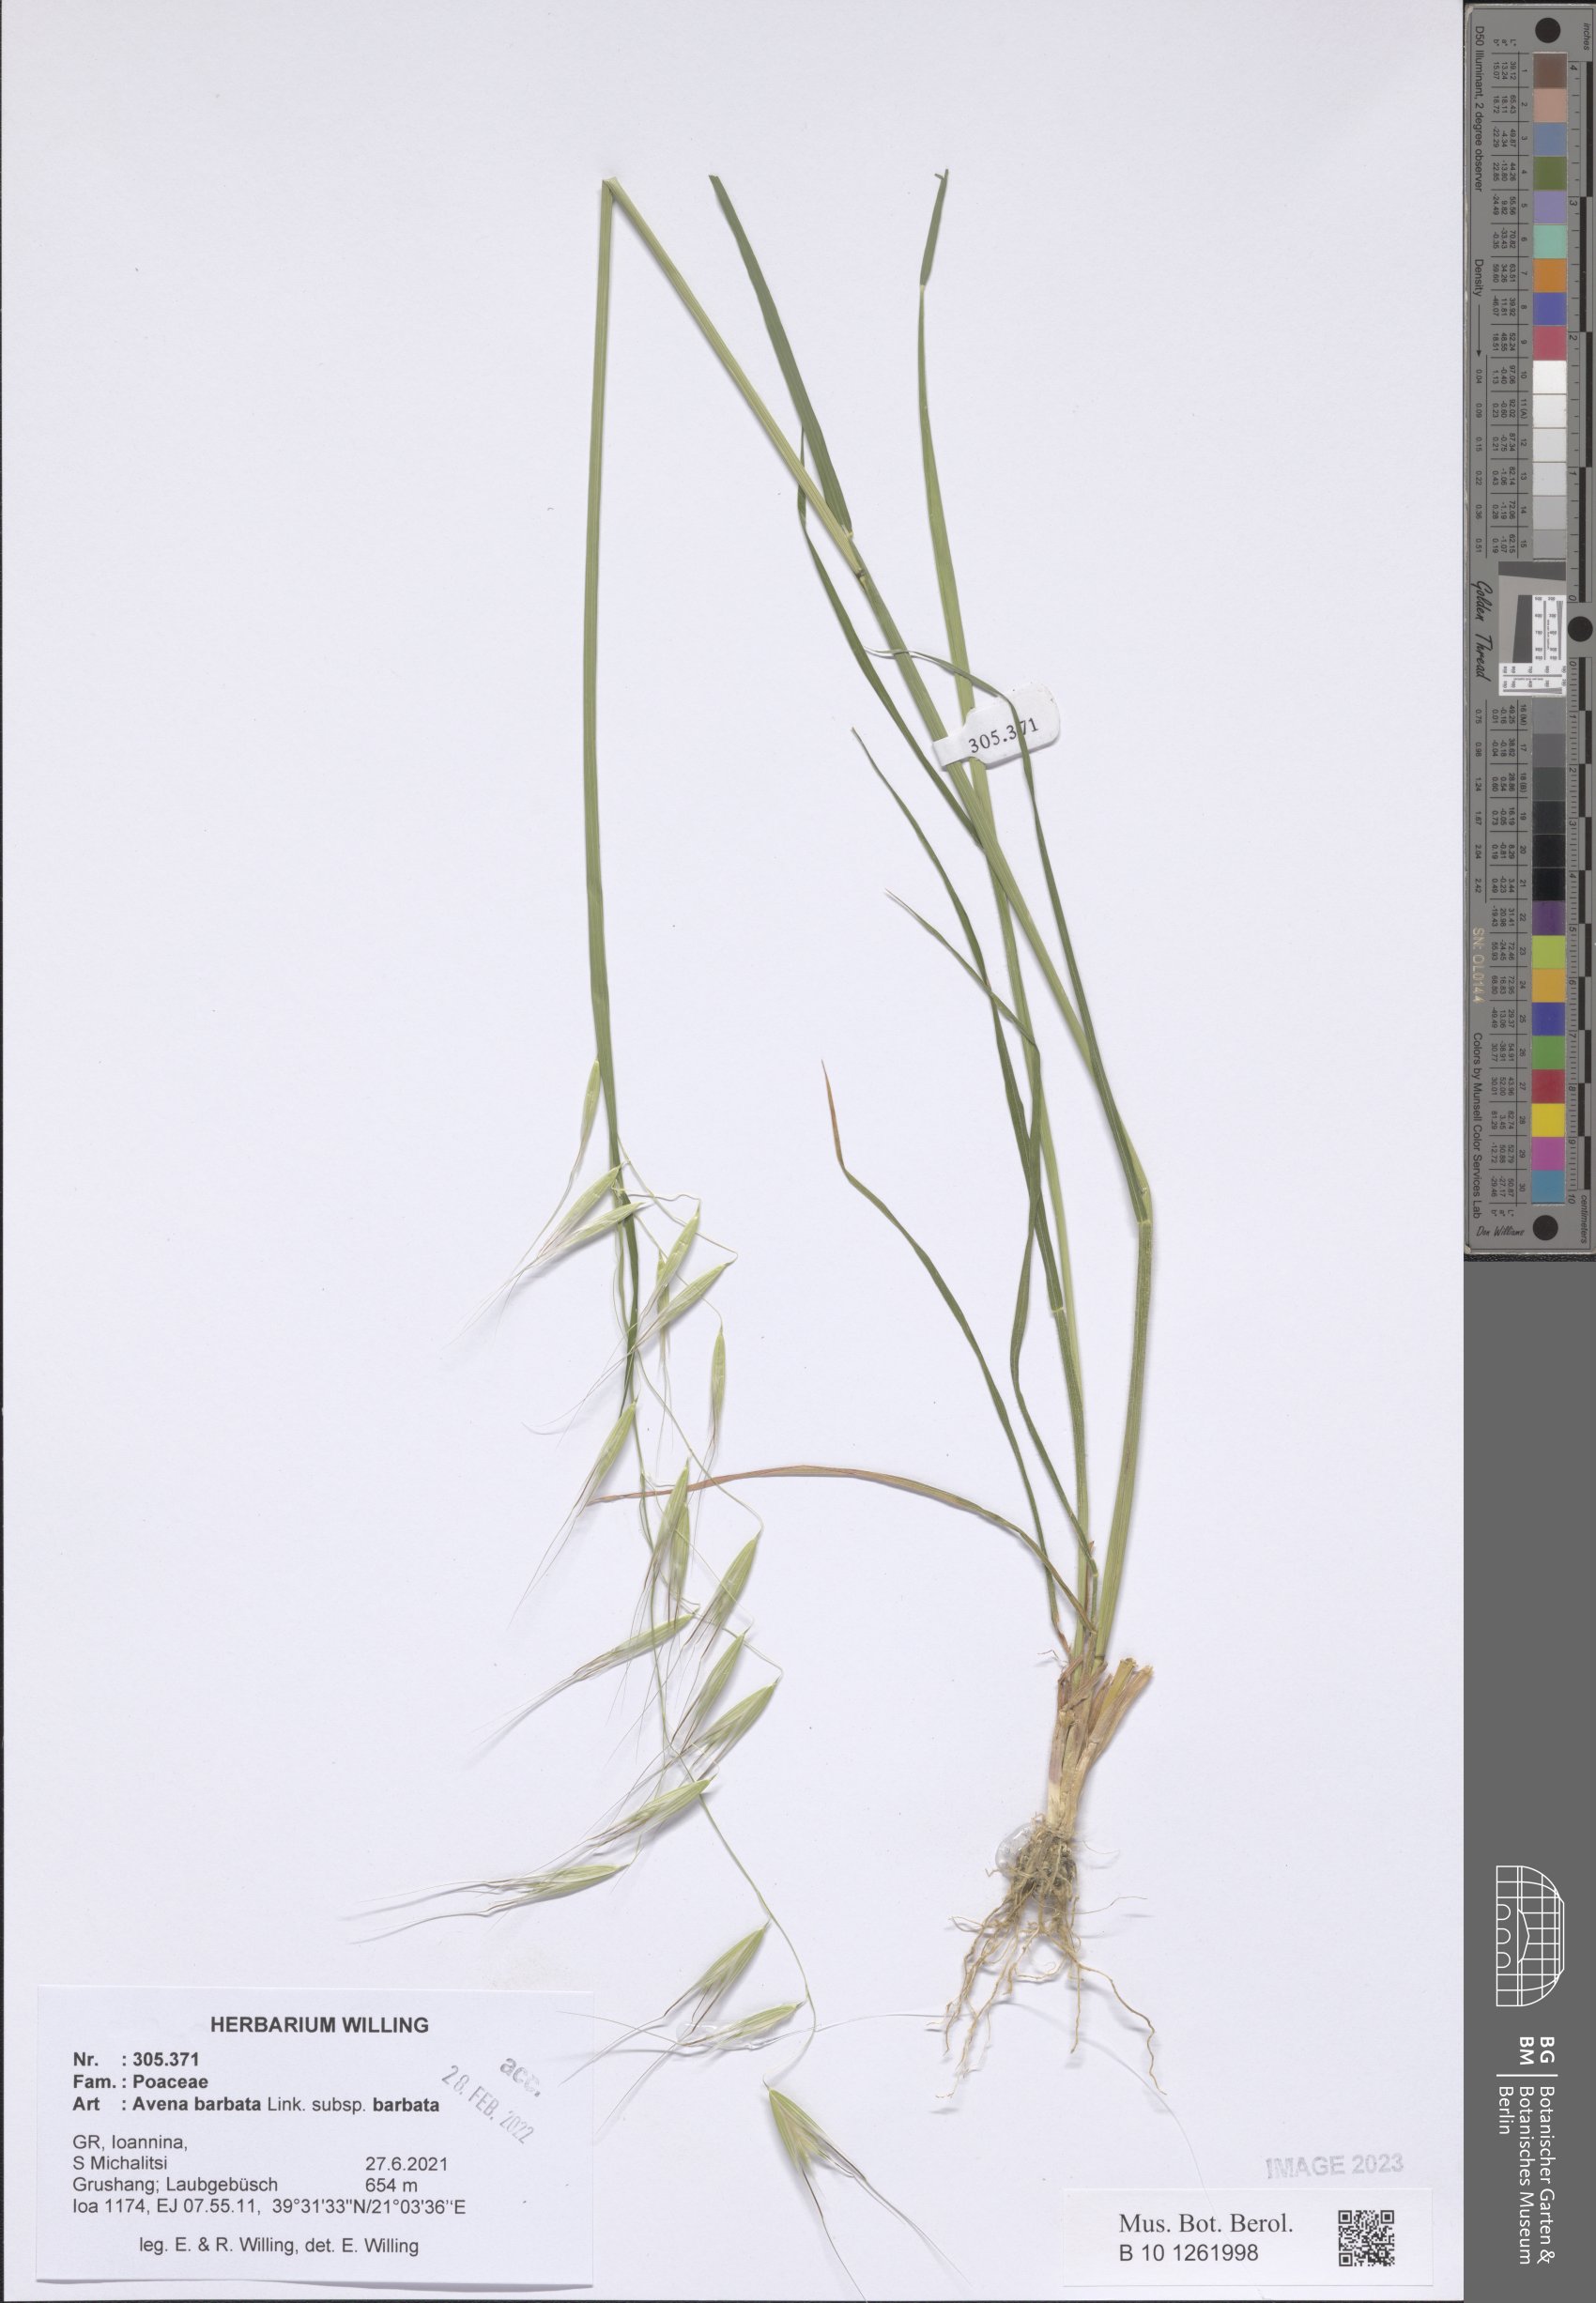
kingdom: Plantae
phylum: Tracheophyta
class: Liliopsida
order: Poales
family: Poaceae
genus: Avena
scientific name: Avena barbata
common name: Slender oat
